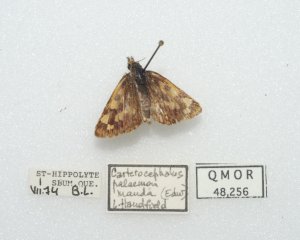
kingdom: Animalia
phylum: Arthropoda
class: Insecta
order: Lepidoptera
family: Hesperiidae
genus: Carterocephalus
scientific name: Carterocephalus palaemon
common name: Chequered Skipper
